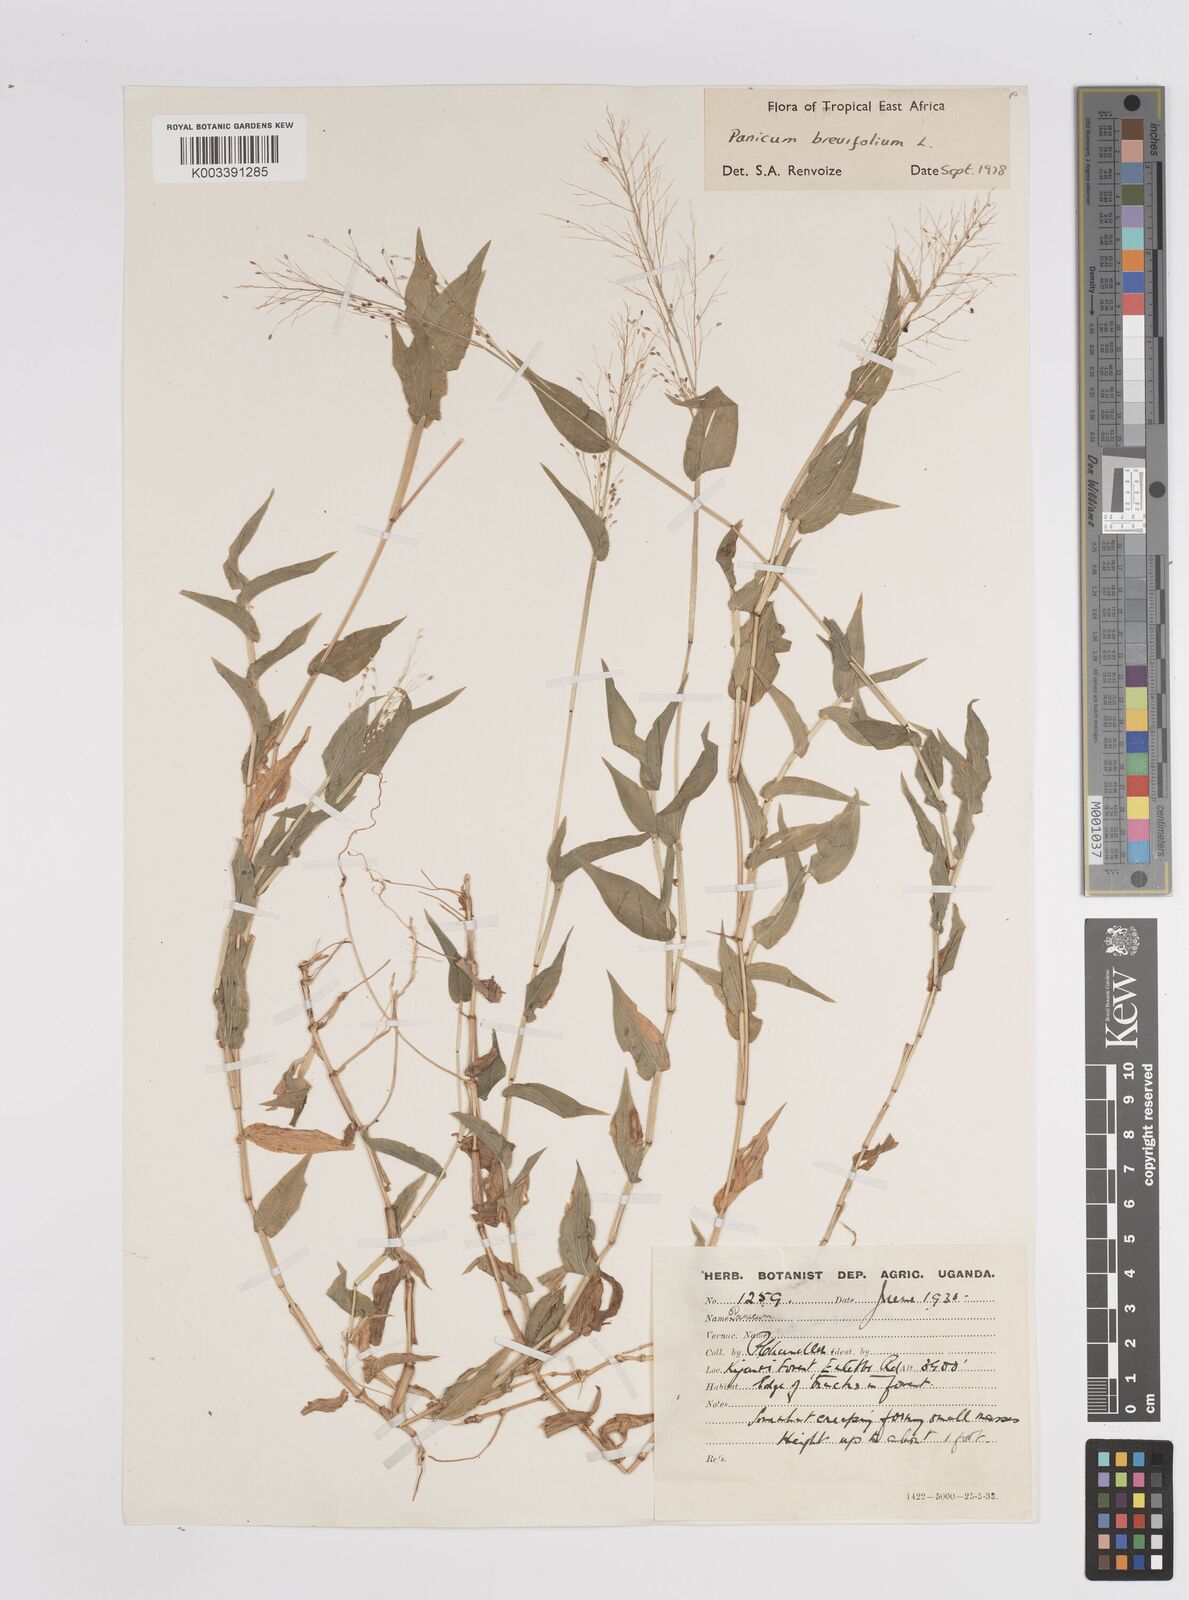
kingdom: Plantae
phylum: Tracheophyta
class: Liliopsida
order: Poales
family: Poaceae
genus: Panicum
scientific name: Panicum brevifolium
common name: Shortleaf panic grass
